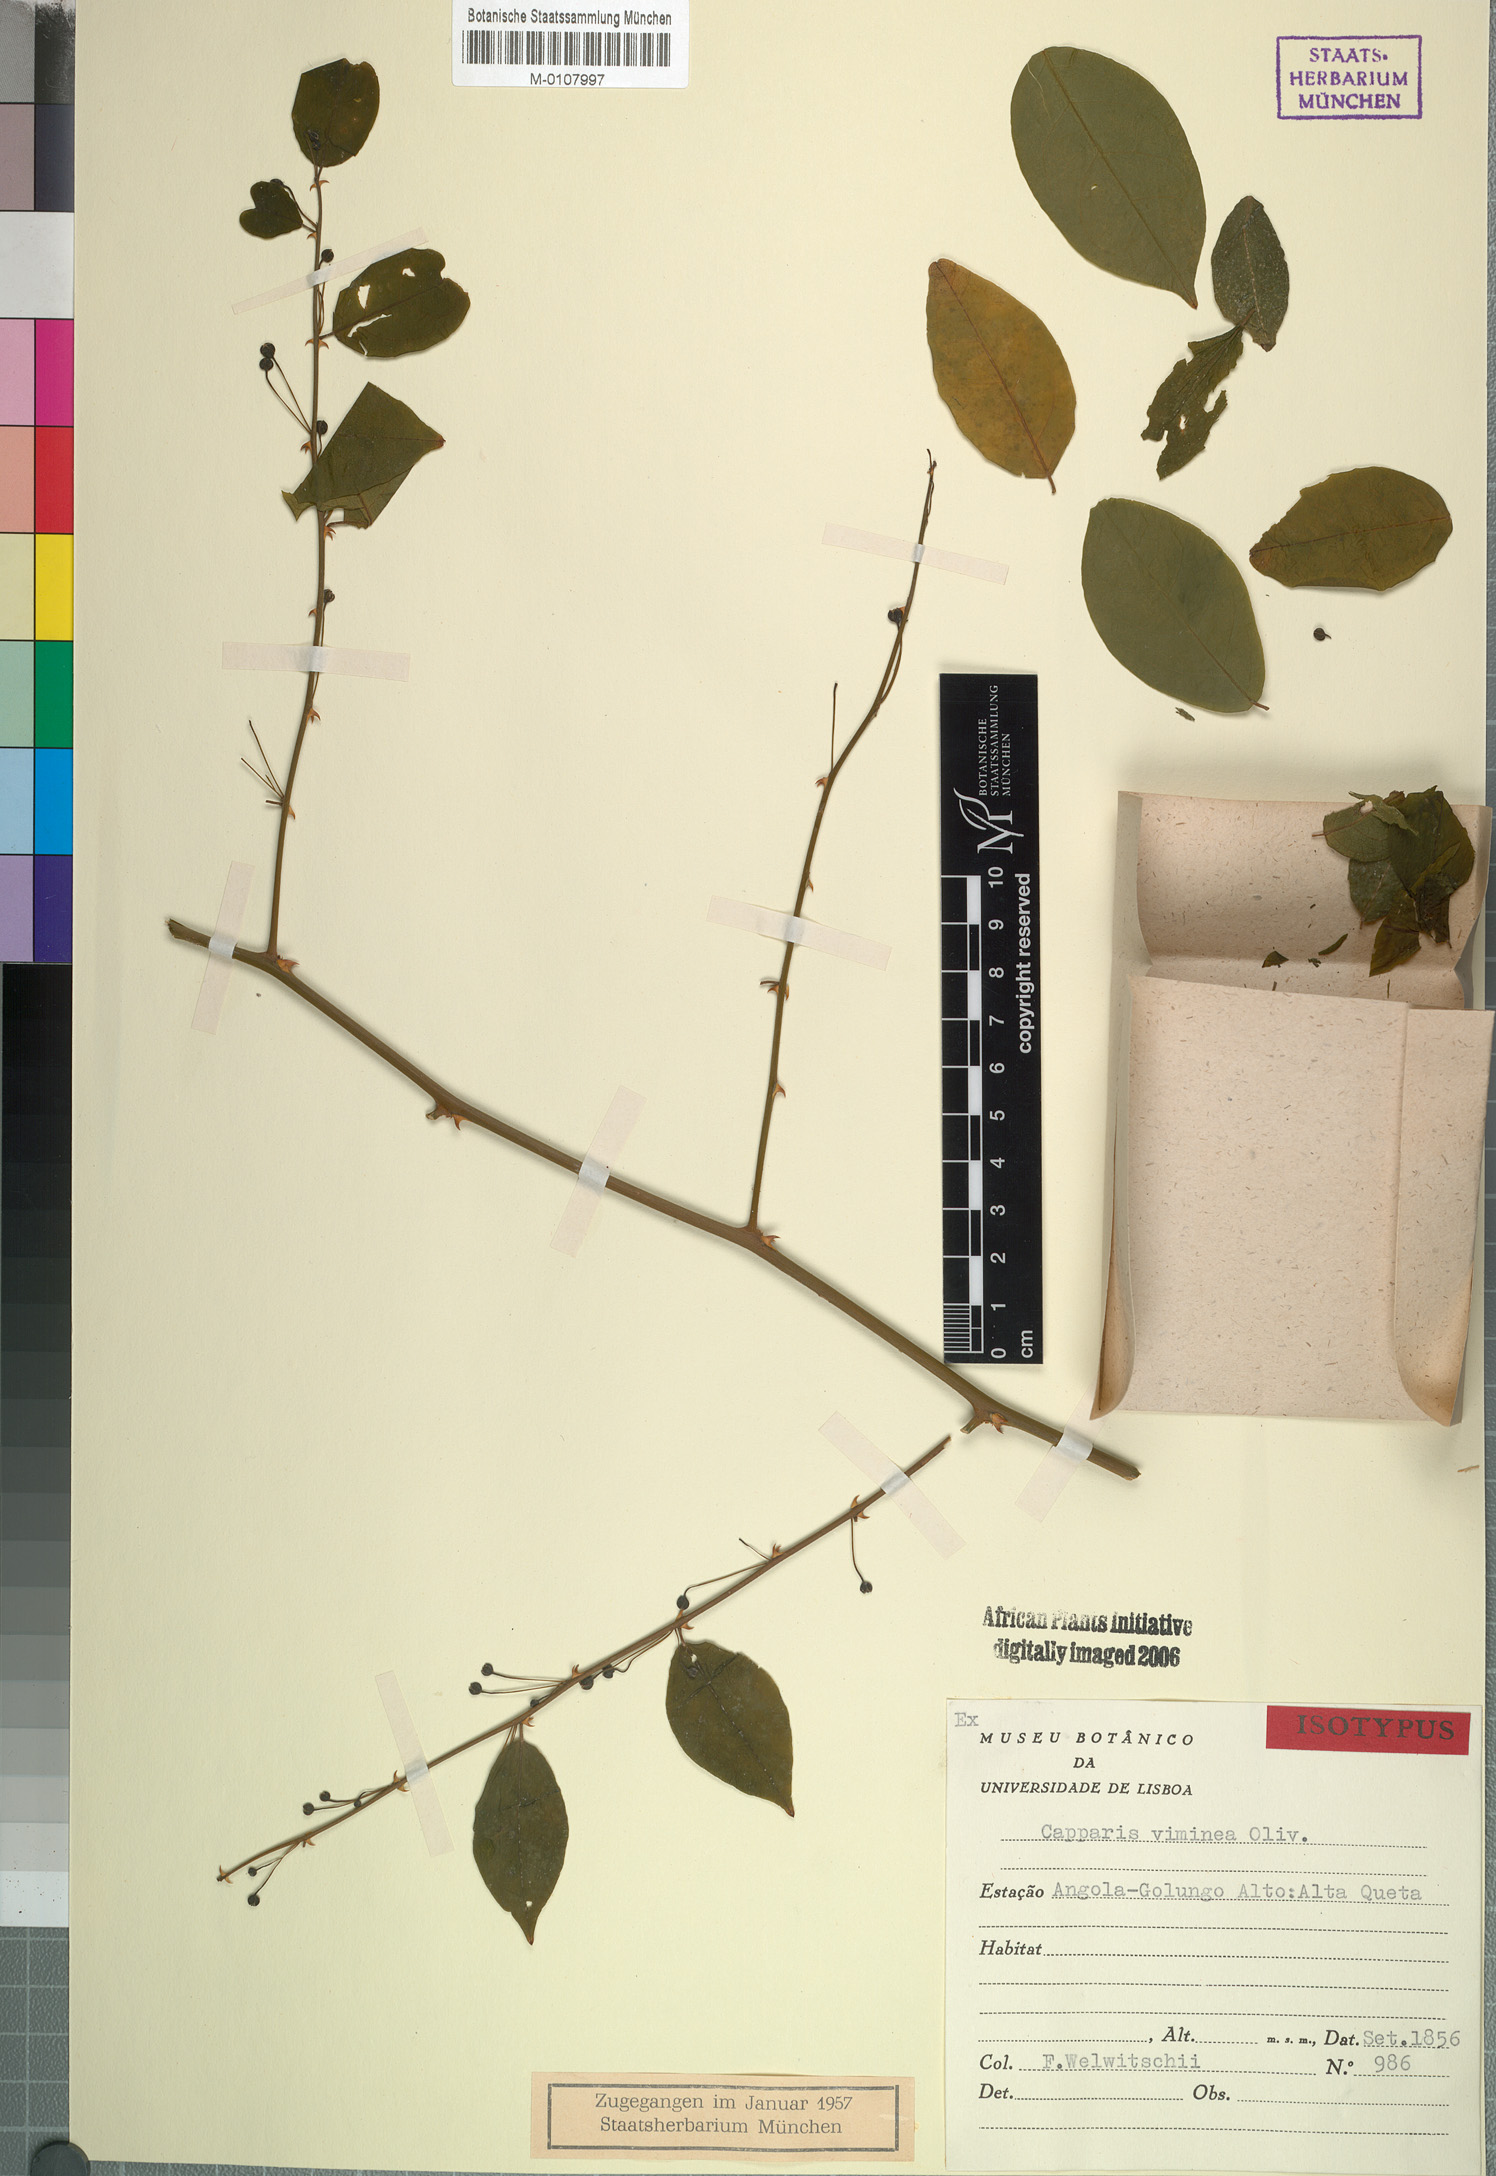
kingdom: Plantae
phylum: Tracheophyta
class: Magnoliopsida
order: Brassicales
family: Capparaceae
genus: Capparis
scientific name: Capparis viminea
